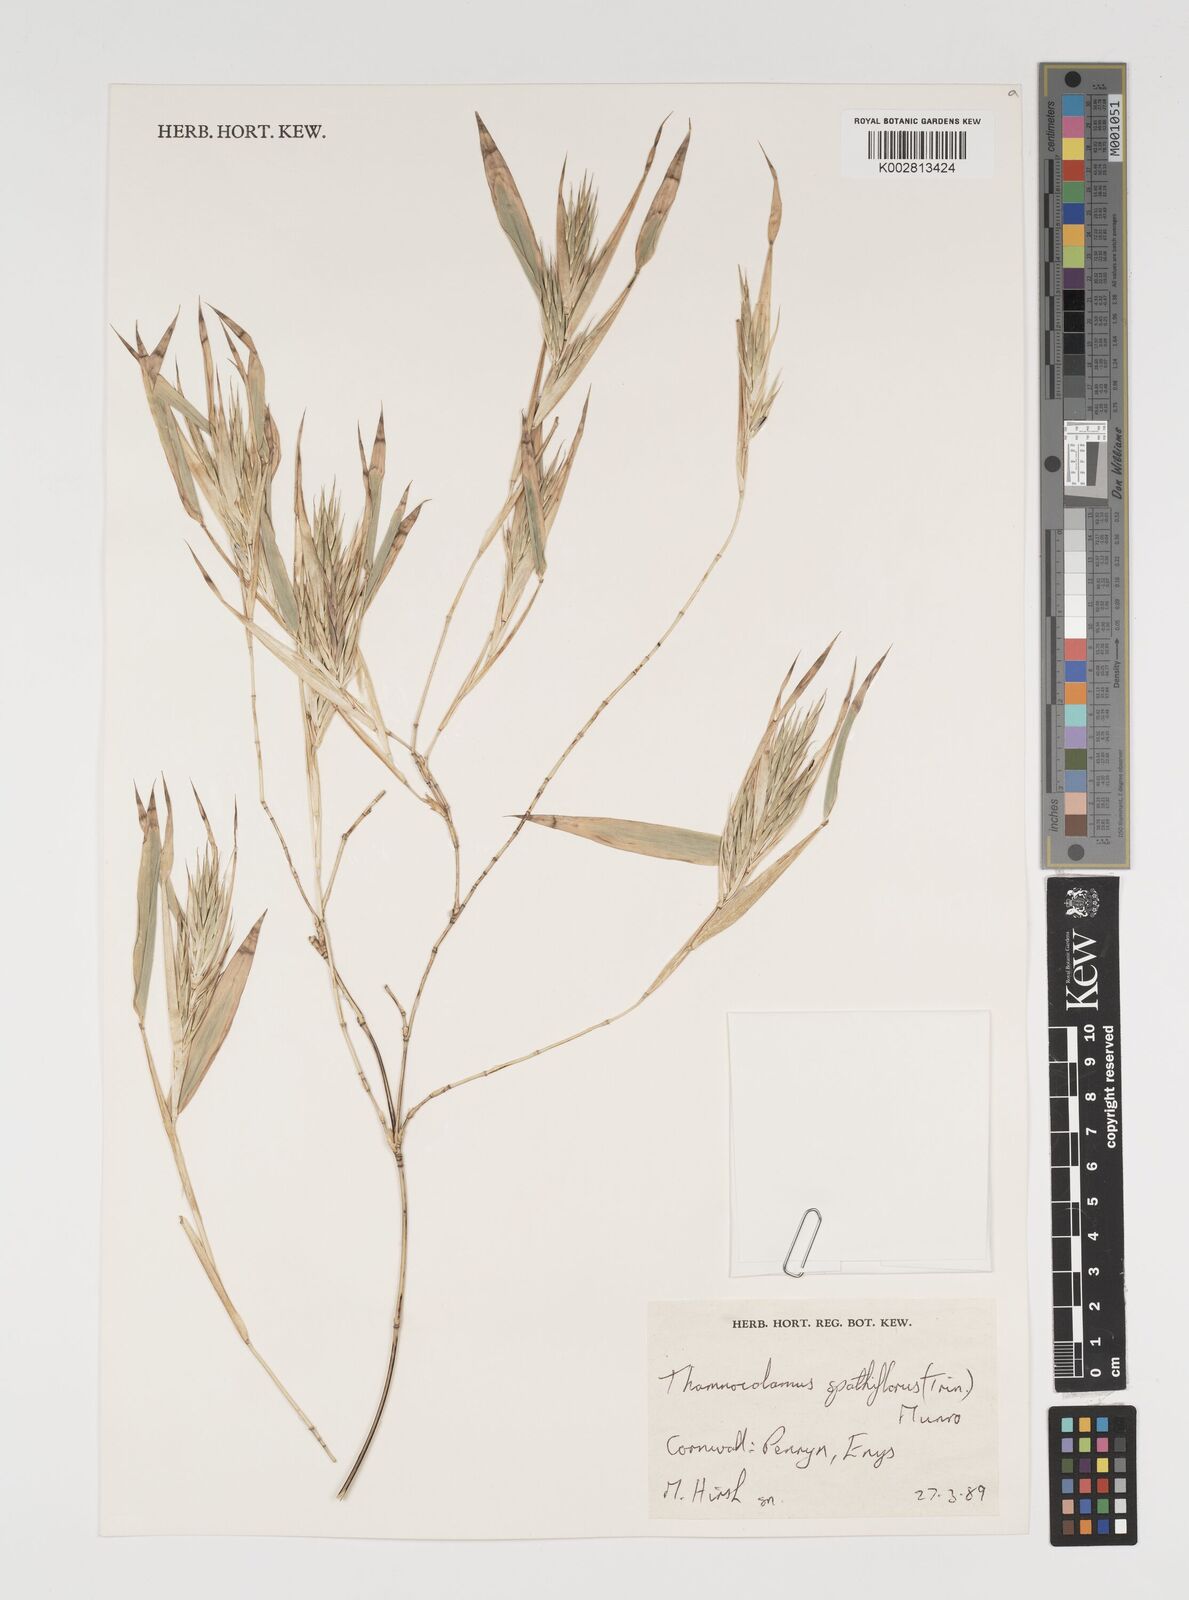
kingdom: Plantae
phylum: Tracheophyta
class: Liliopsida
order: Poales
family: Poaceae
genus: Thamnocalamus
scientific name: Thamnocalamus spathiflorus
